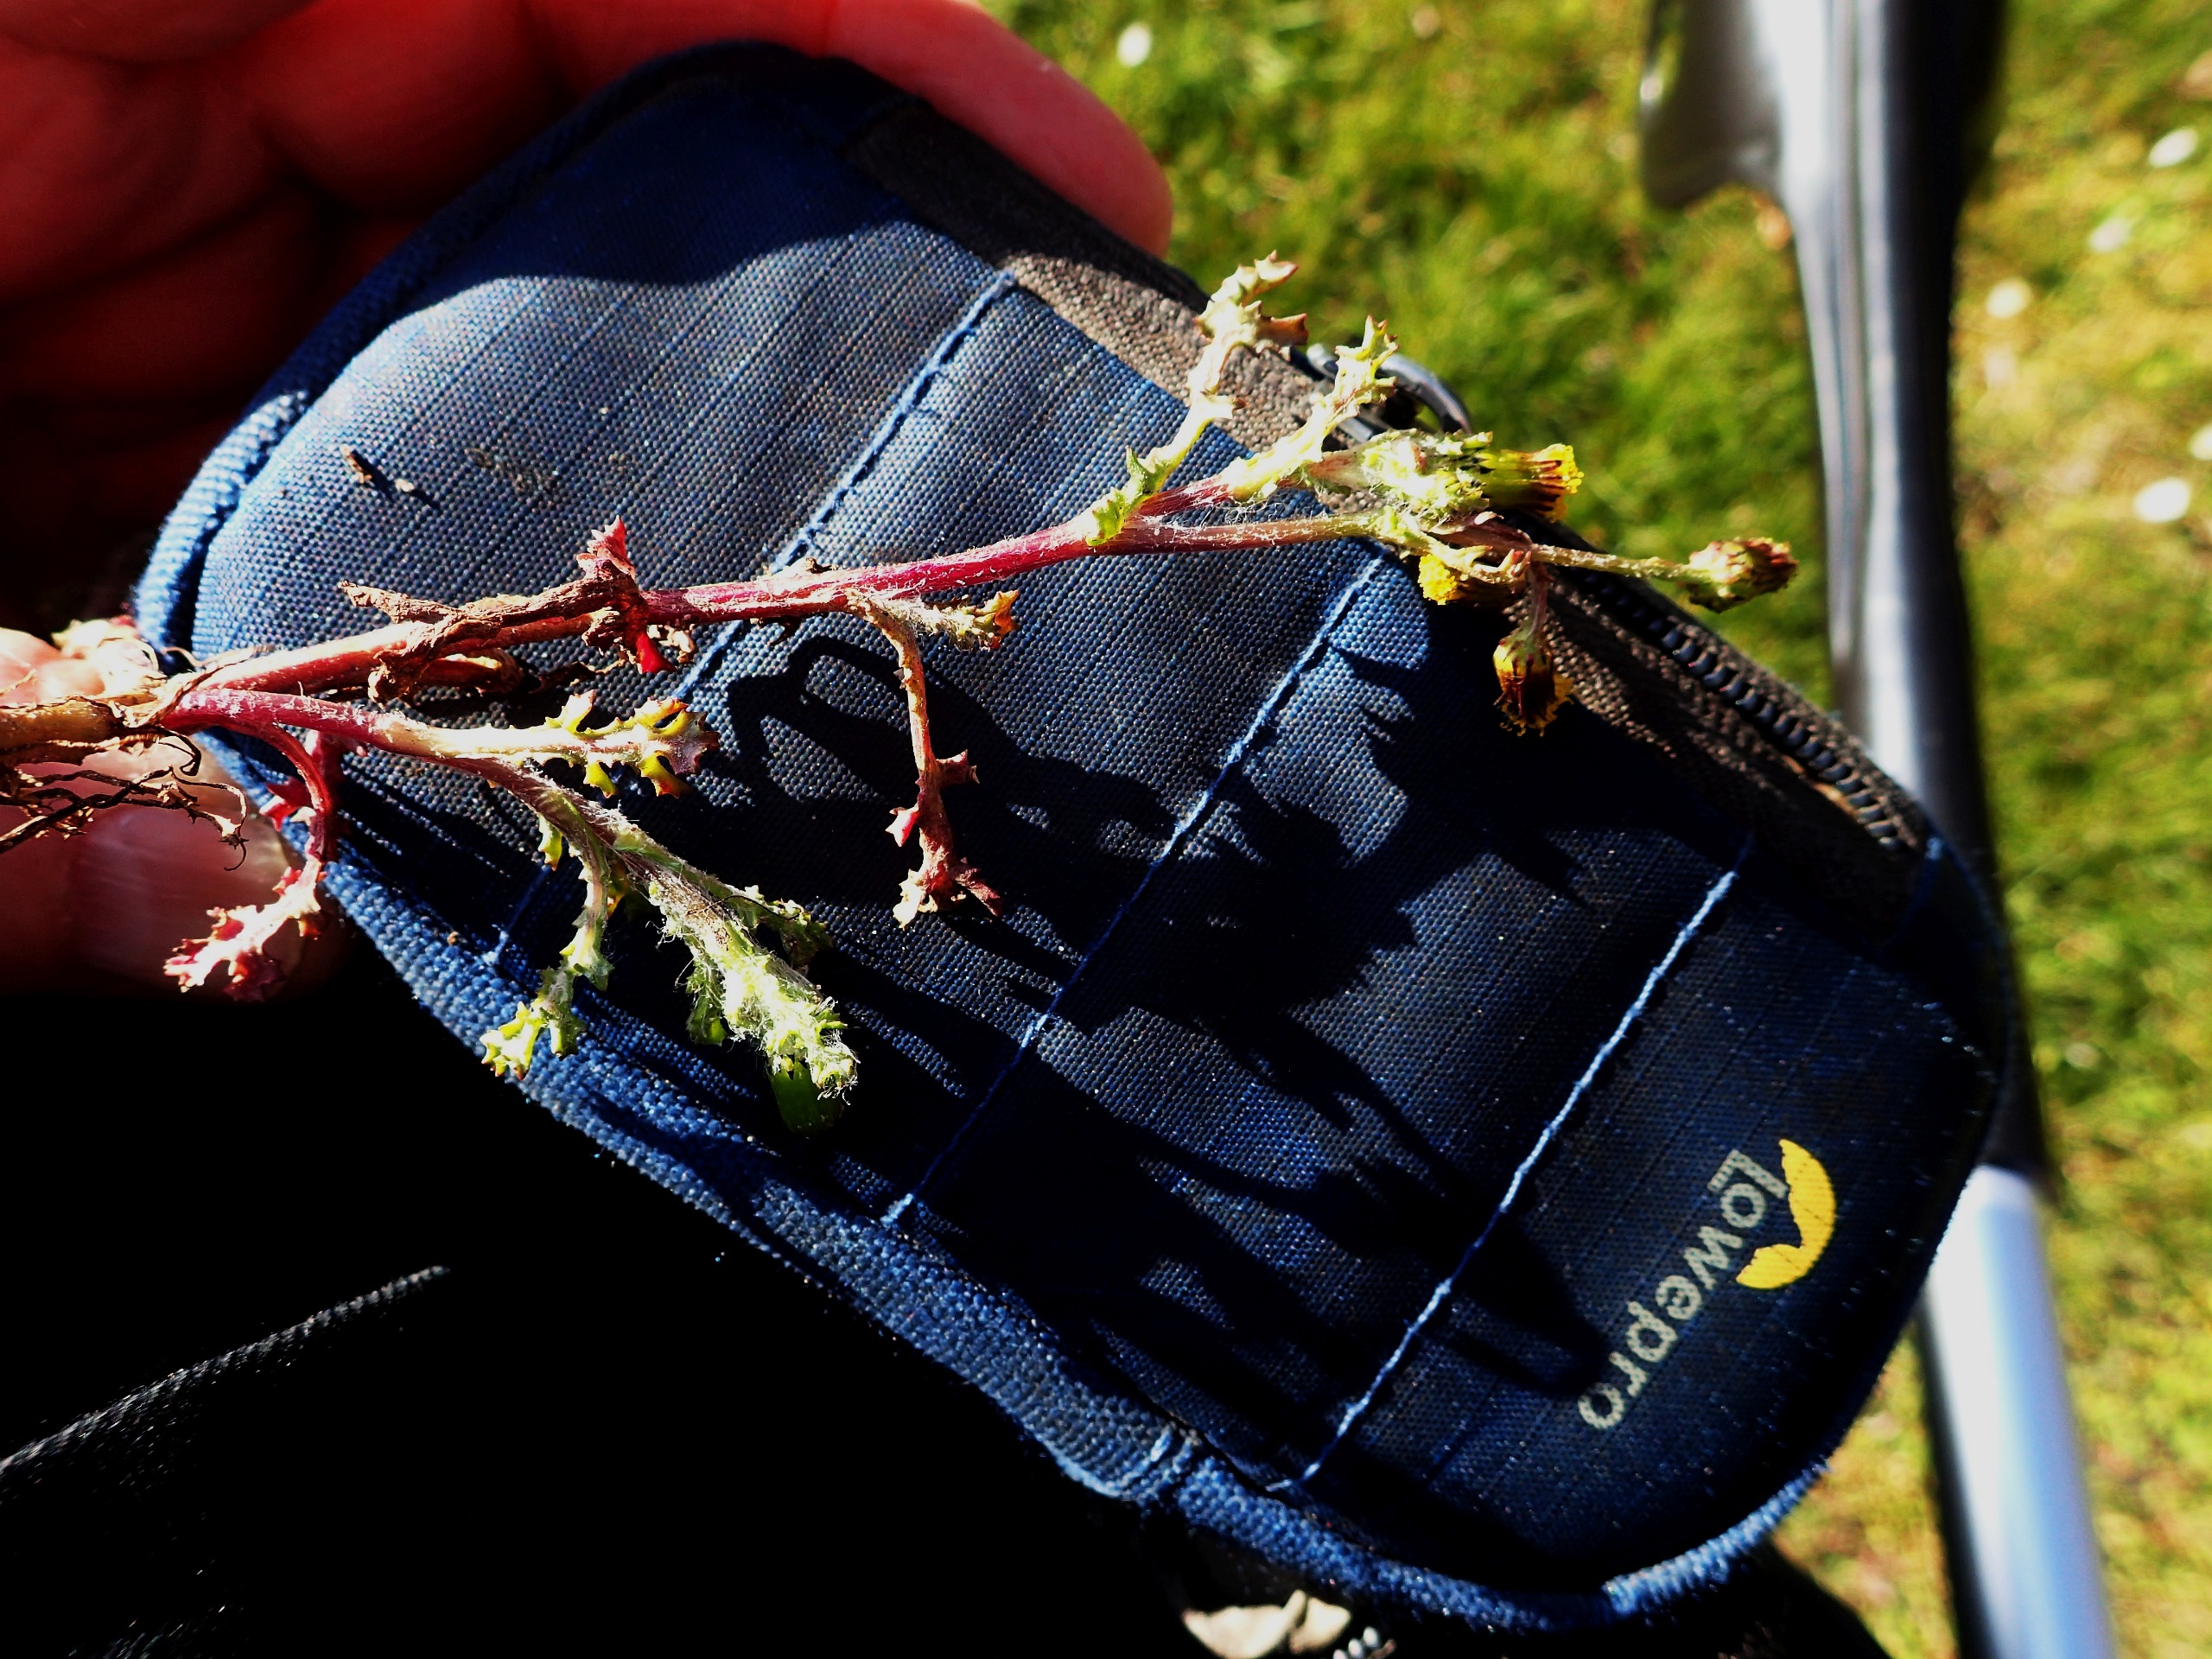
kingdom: Plantae
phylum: Tracheophyta
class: Magnoliopsida
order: Asterales
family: Asteraceae
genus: Senecio
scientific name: Senecio vulgaris
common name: Almindelig brandbæger
